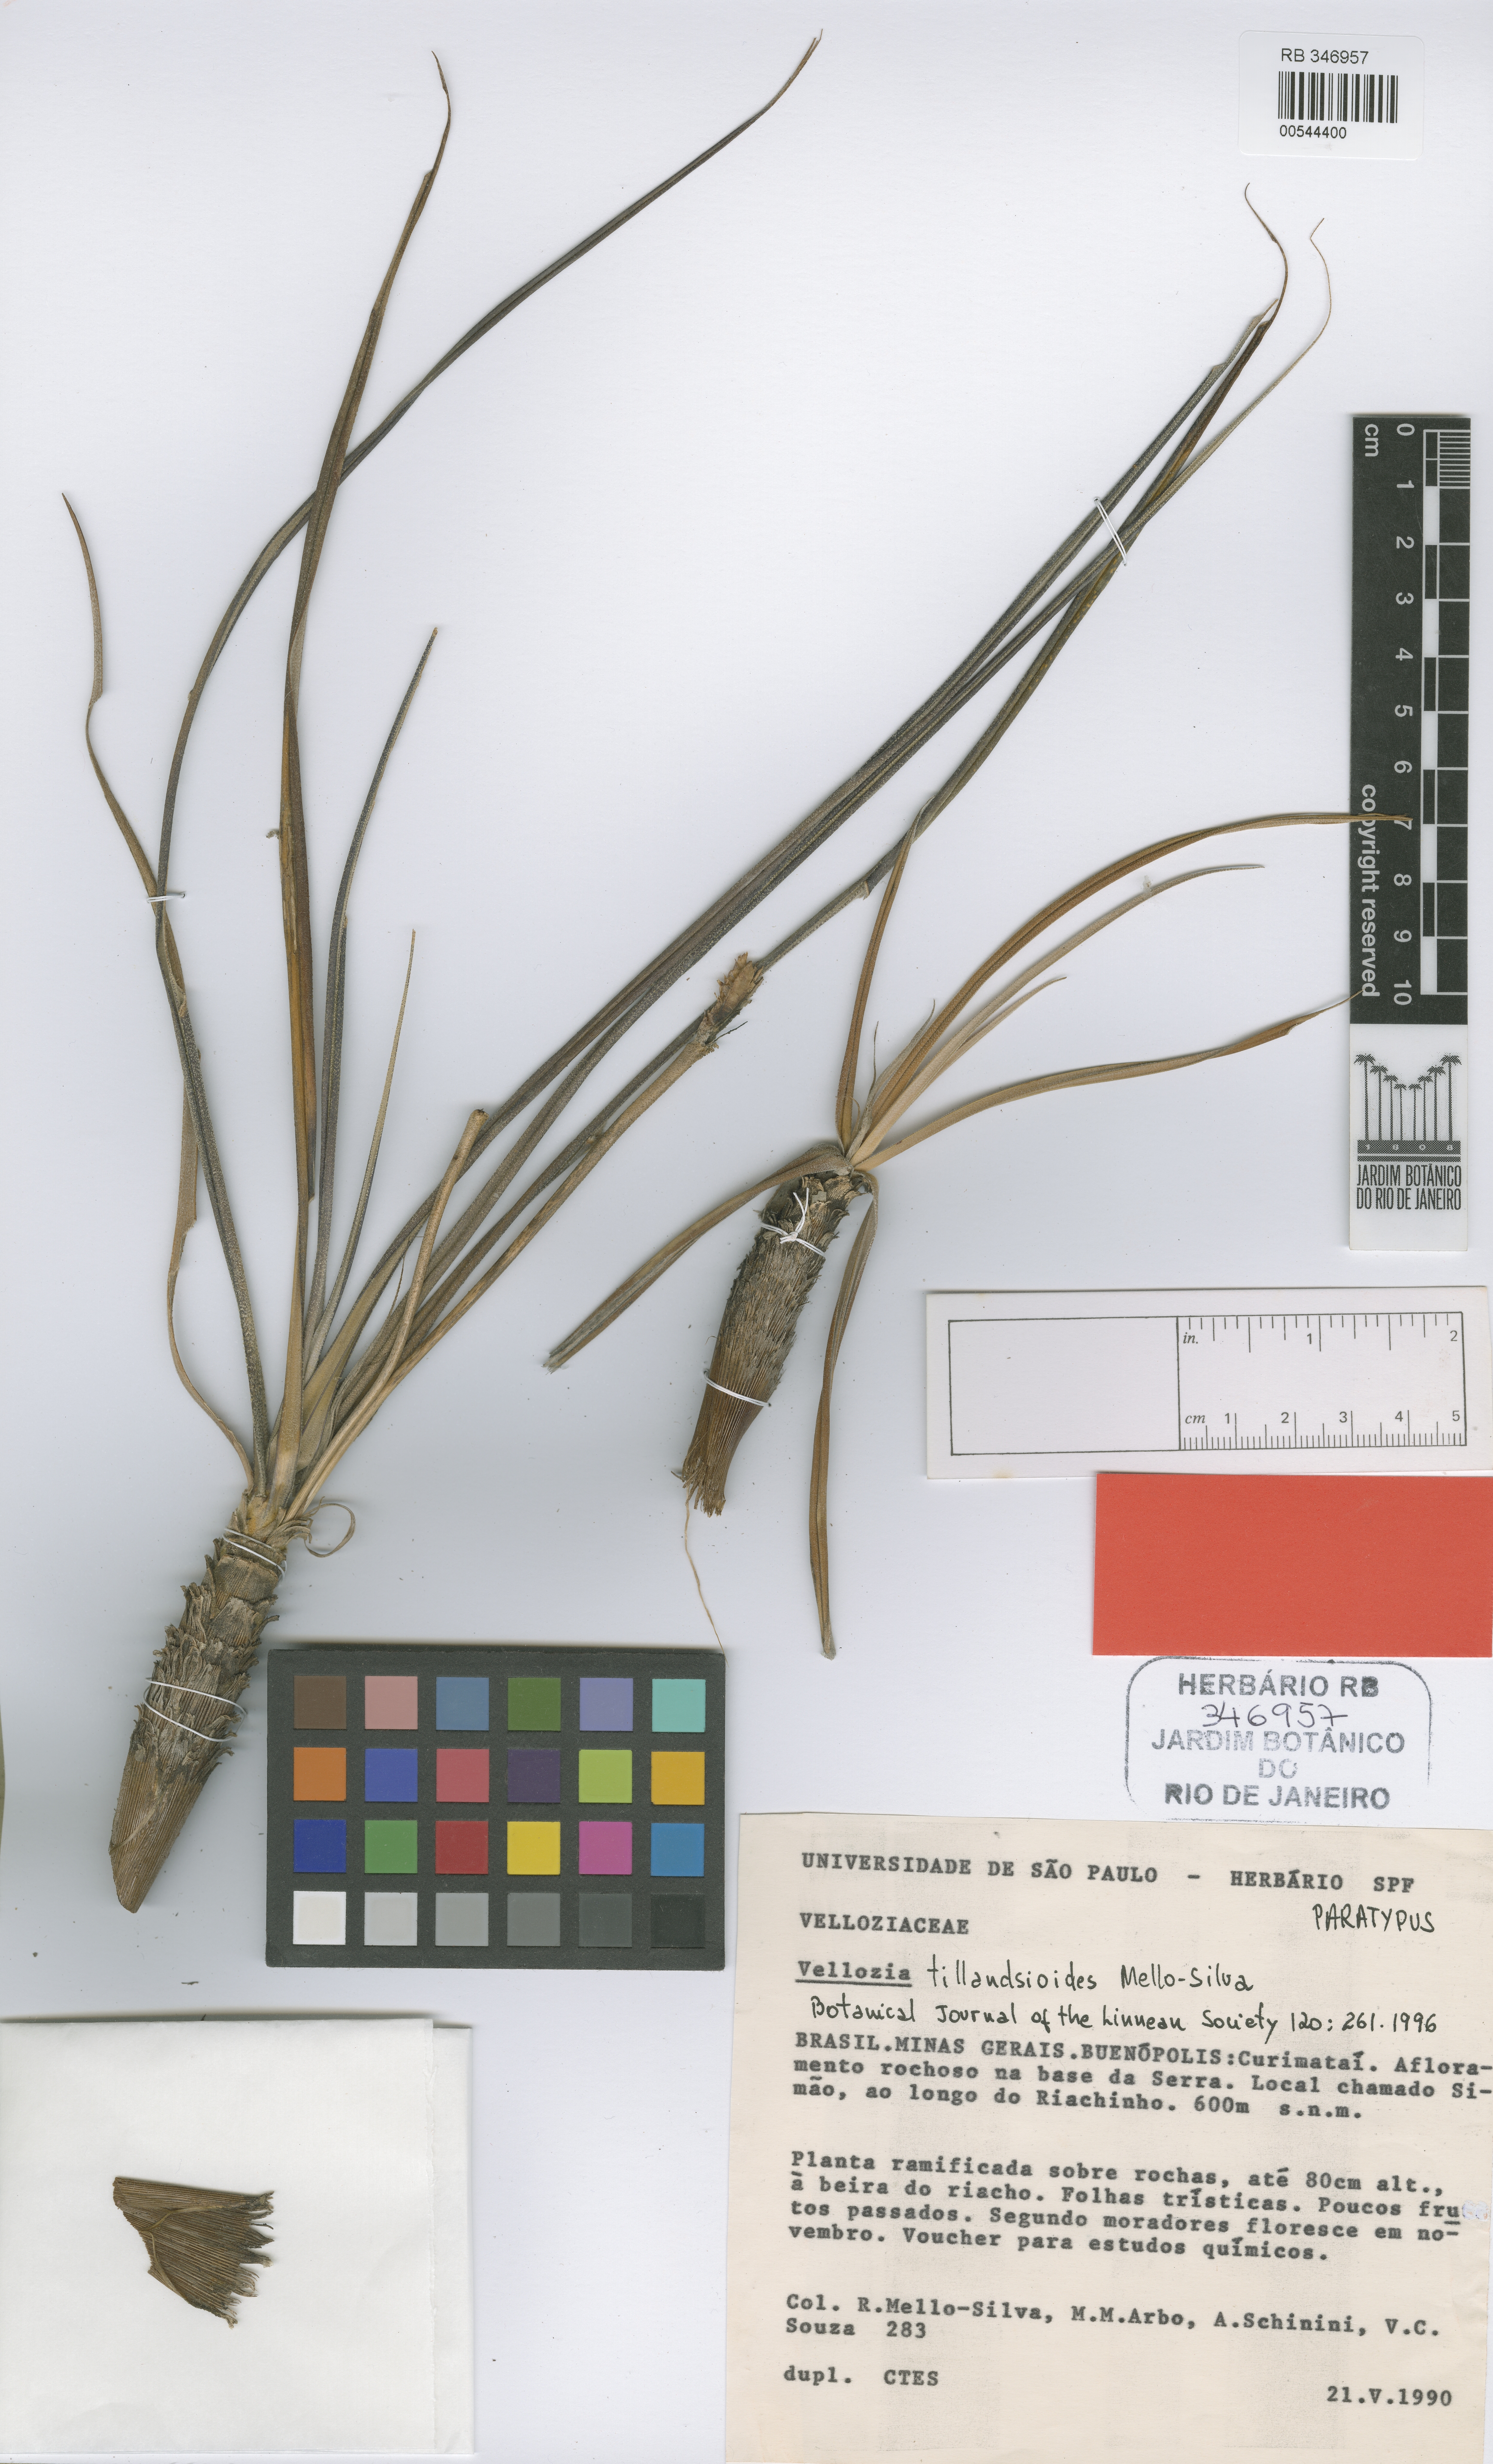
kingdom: Plantae
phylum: Tracheophyta
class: Liliopsida
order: Pandanales
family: Velloziaceae
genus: Vellozia
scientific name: Vellozia tillandsioides
